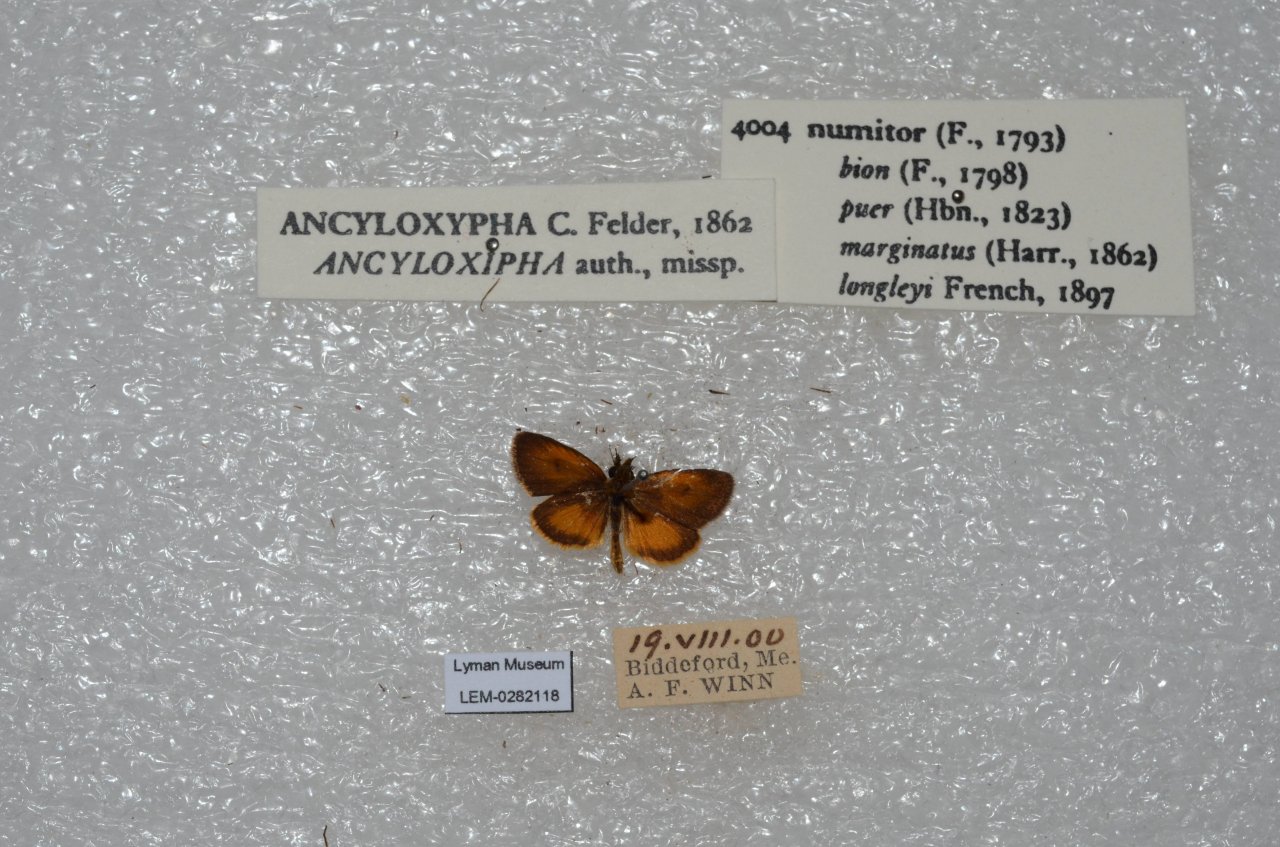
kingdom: Animalia
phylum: Arthropoda
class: Insecta
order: Lepidoptera
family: Hesperiidae
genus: Ancyloxypha
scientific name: Ancyloxypha numitor
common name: Least Skipper
